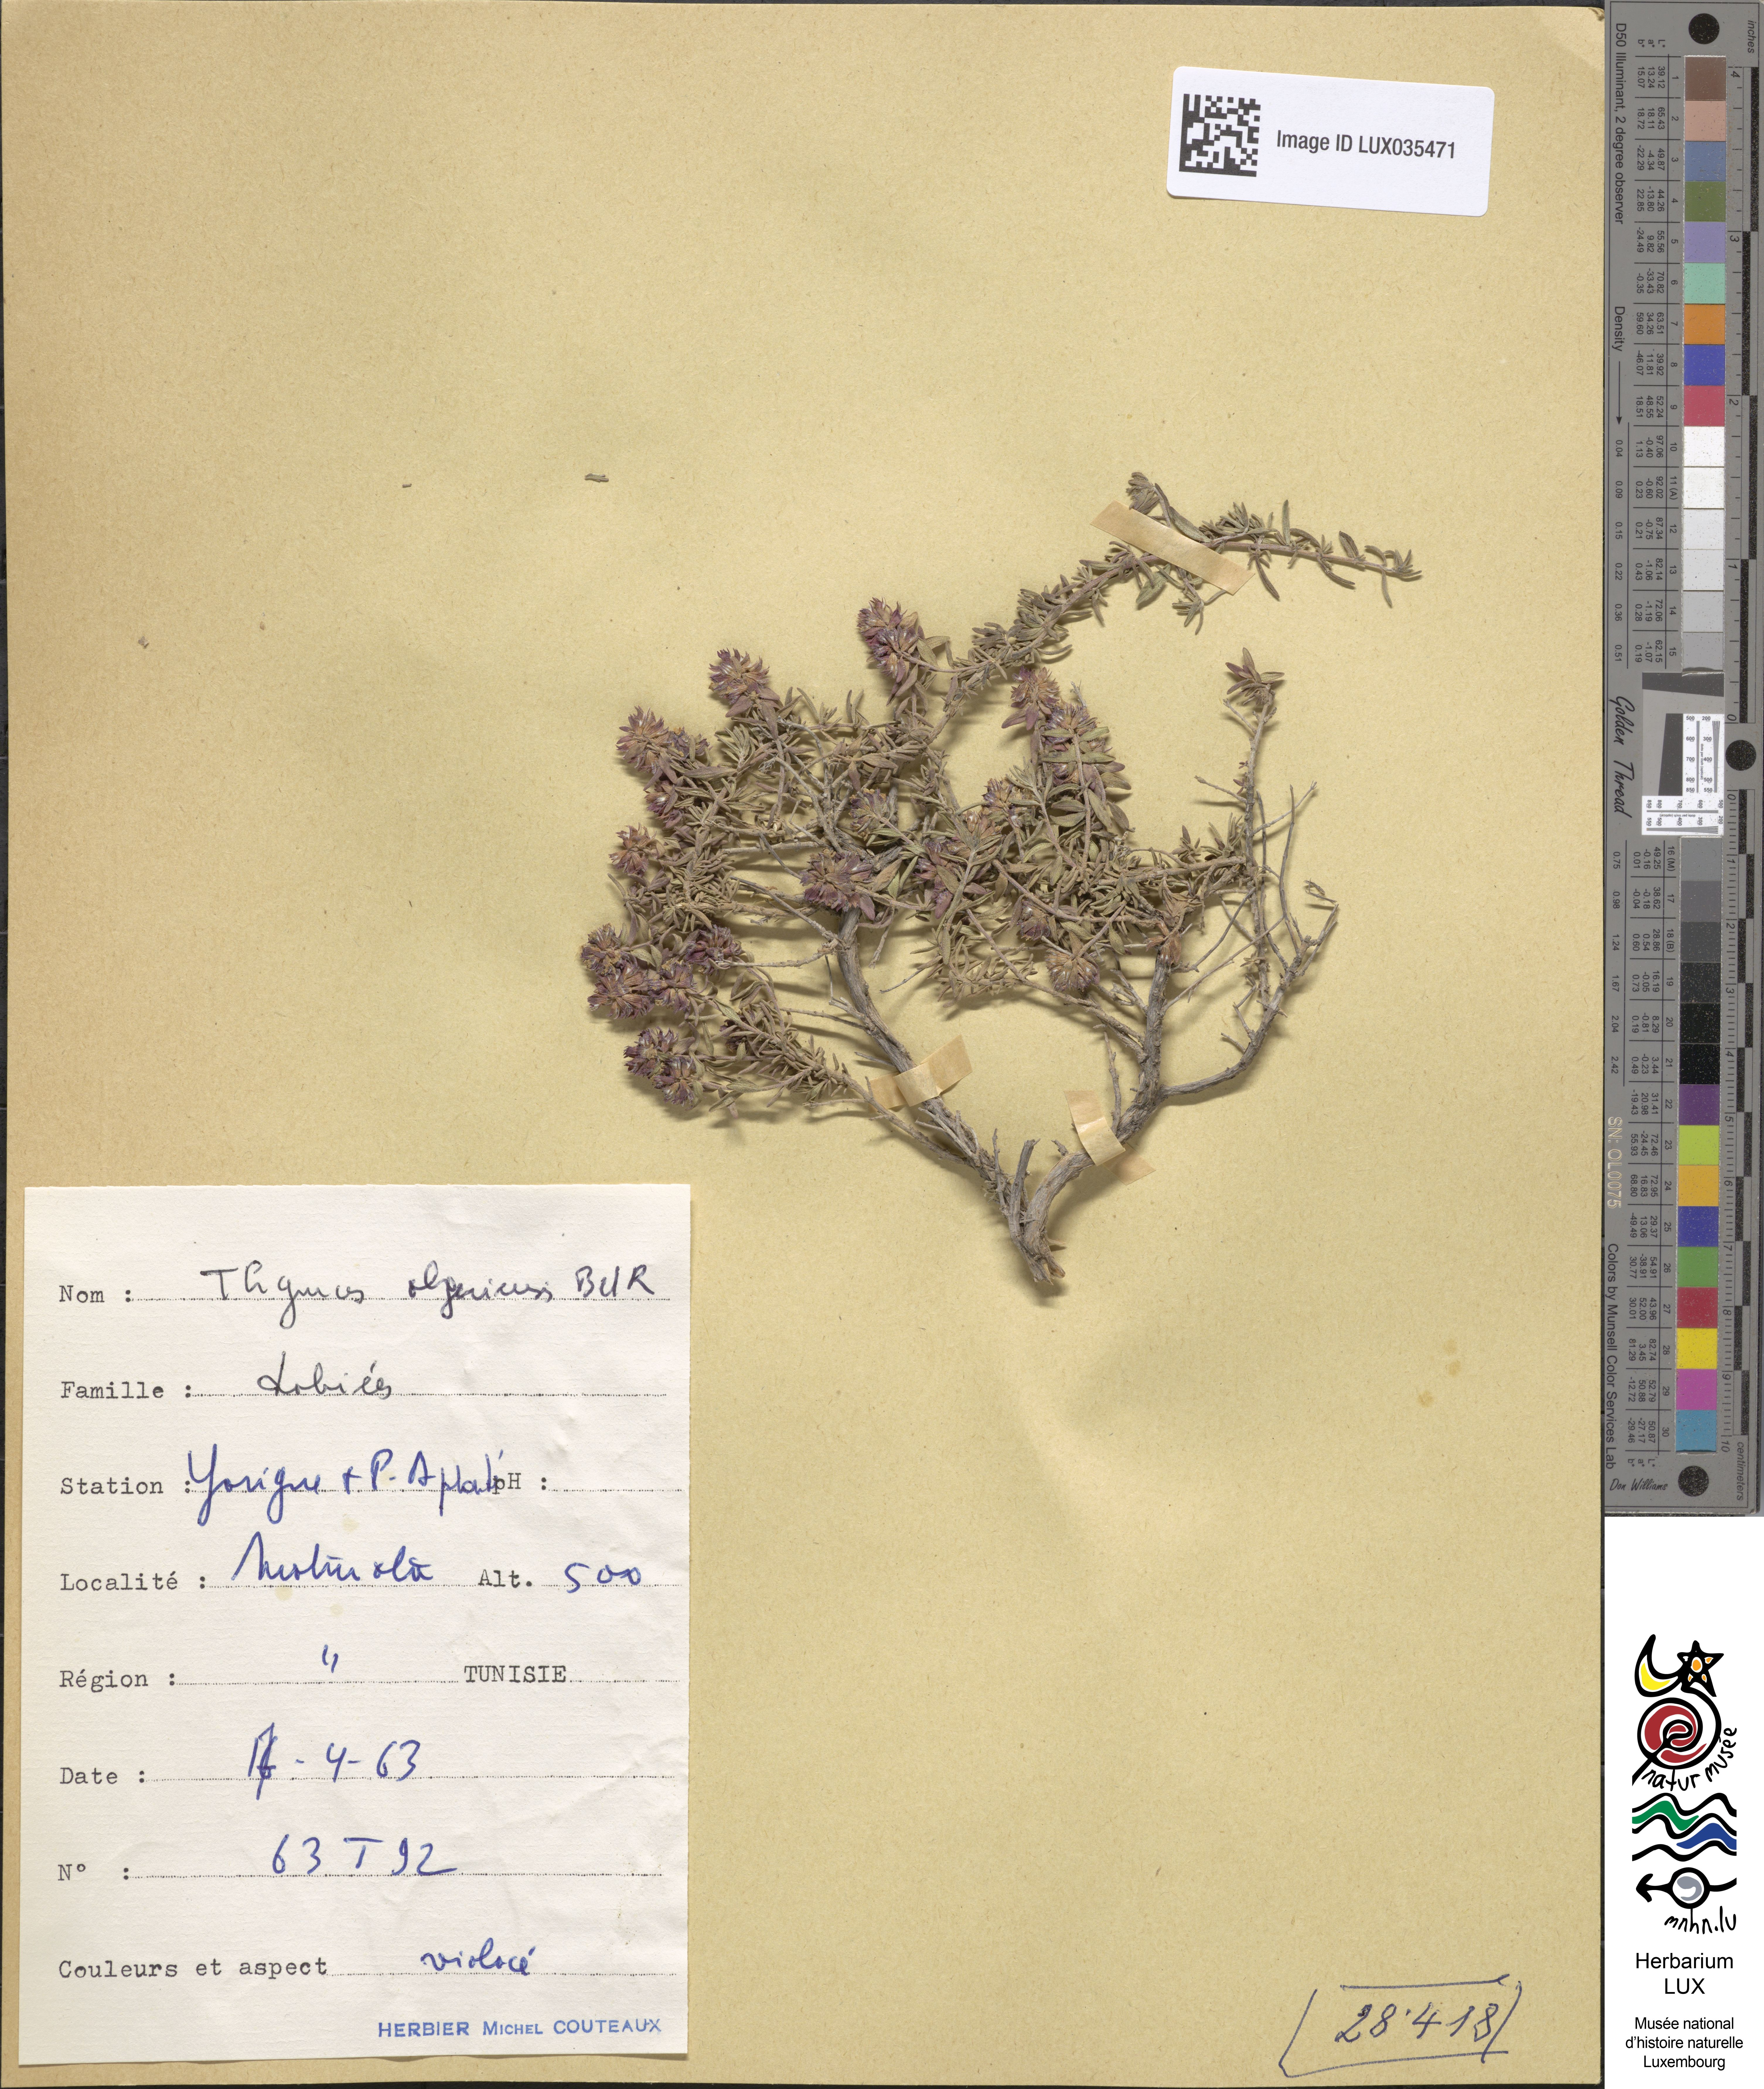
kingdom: Plantae
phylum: Tracheophyta
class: Magnoliopsida
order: Lamiales
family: Lamiaceae
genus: Thymus
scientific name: Thymus algeriensis
